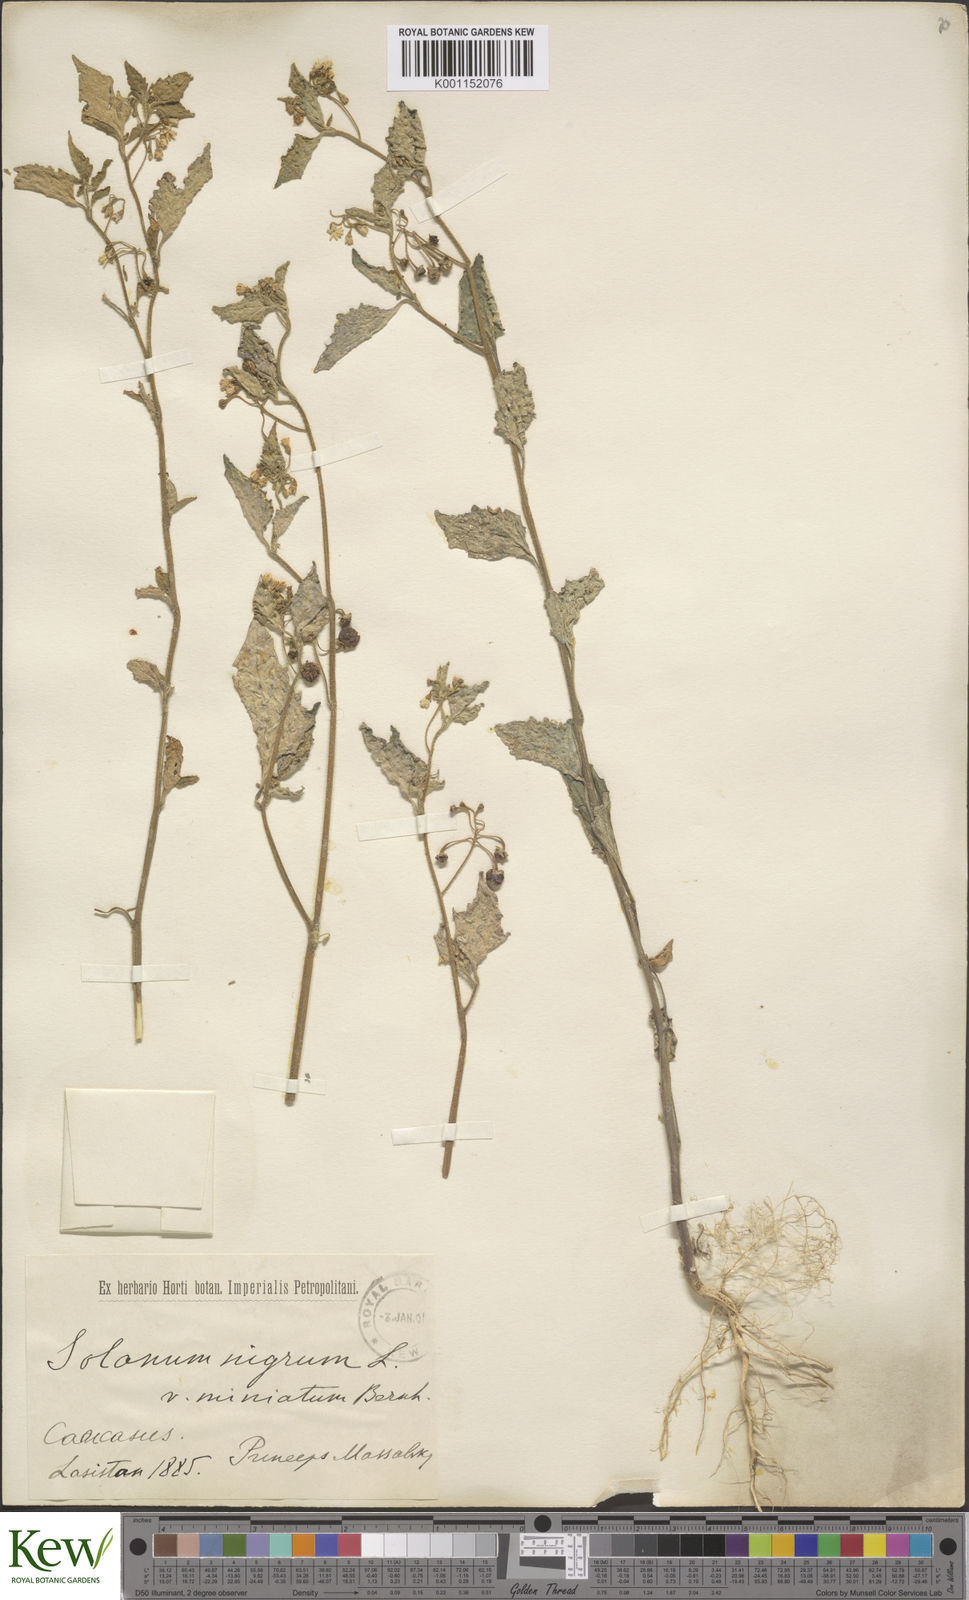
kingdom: Plantae
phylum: Tracheophyta
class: Magnoliopsida
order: Solanales
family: Solanaceae
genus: Solanum
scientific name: Solanum alatum
